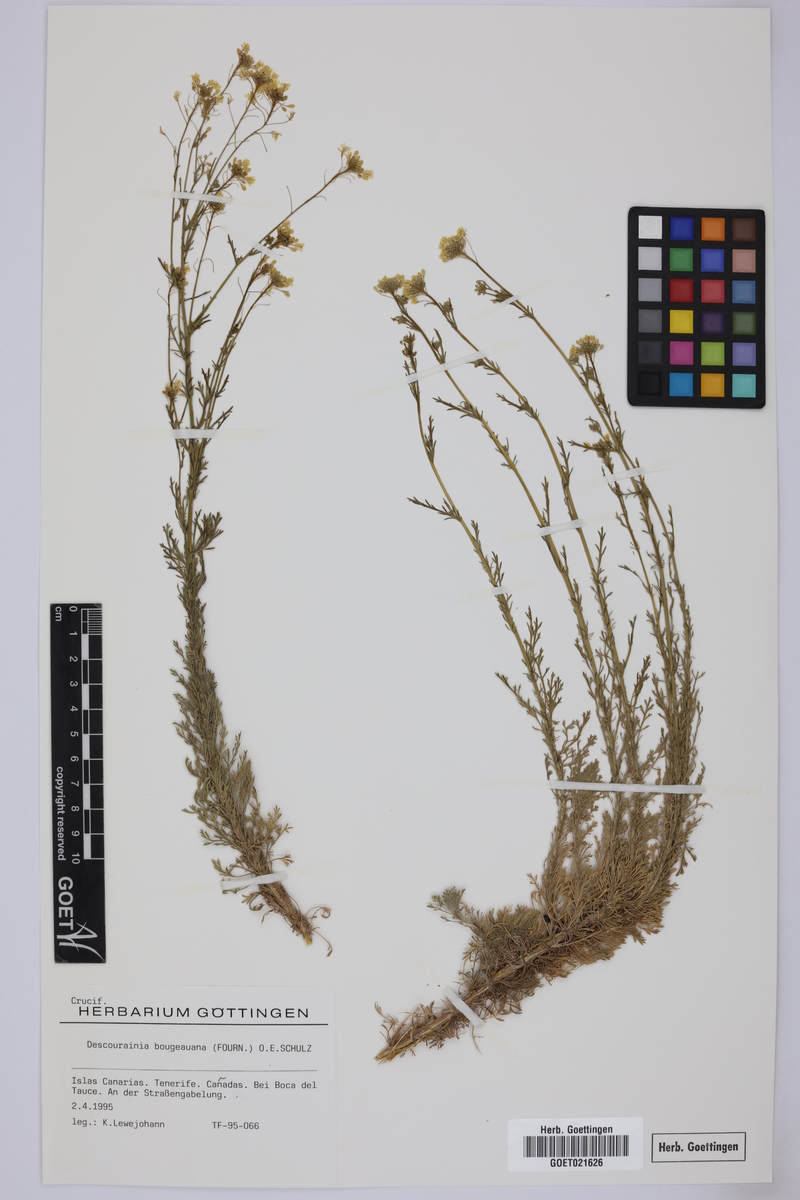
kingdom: Plantae
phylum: Tracheophyta
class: Magnoliopsida
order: Brassicales
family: Brassicaceae
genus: Descurainia
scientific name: Descurainia bourgaeana
